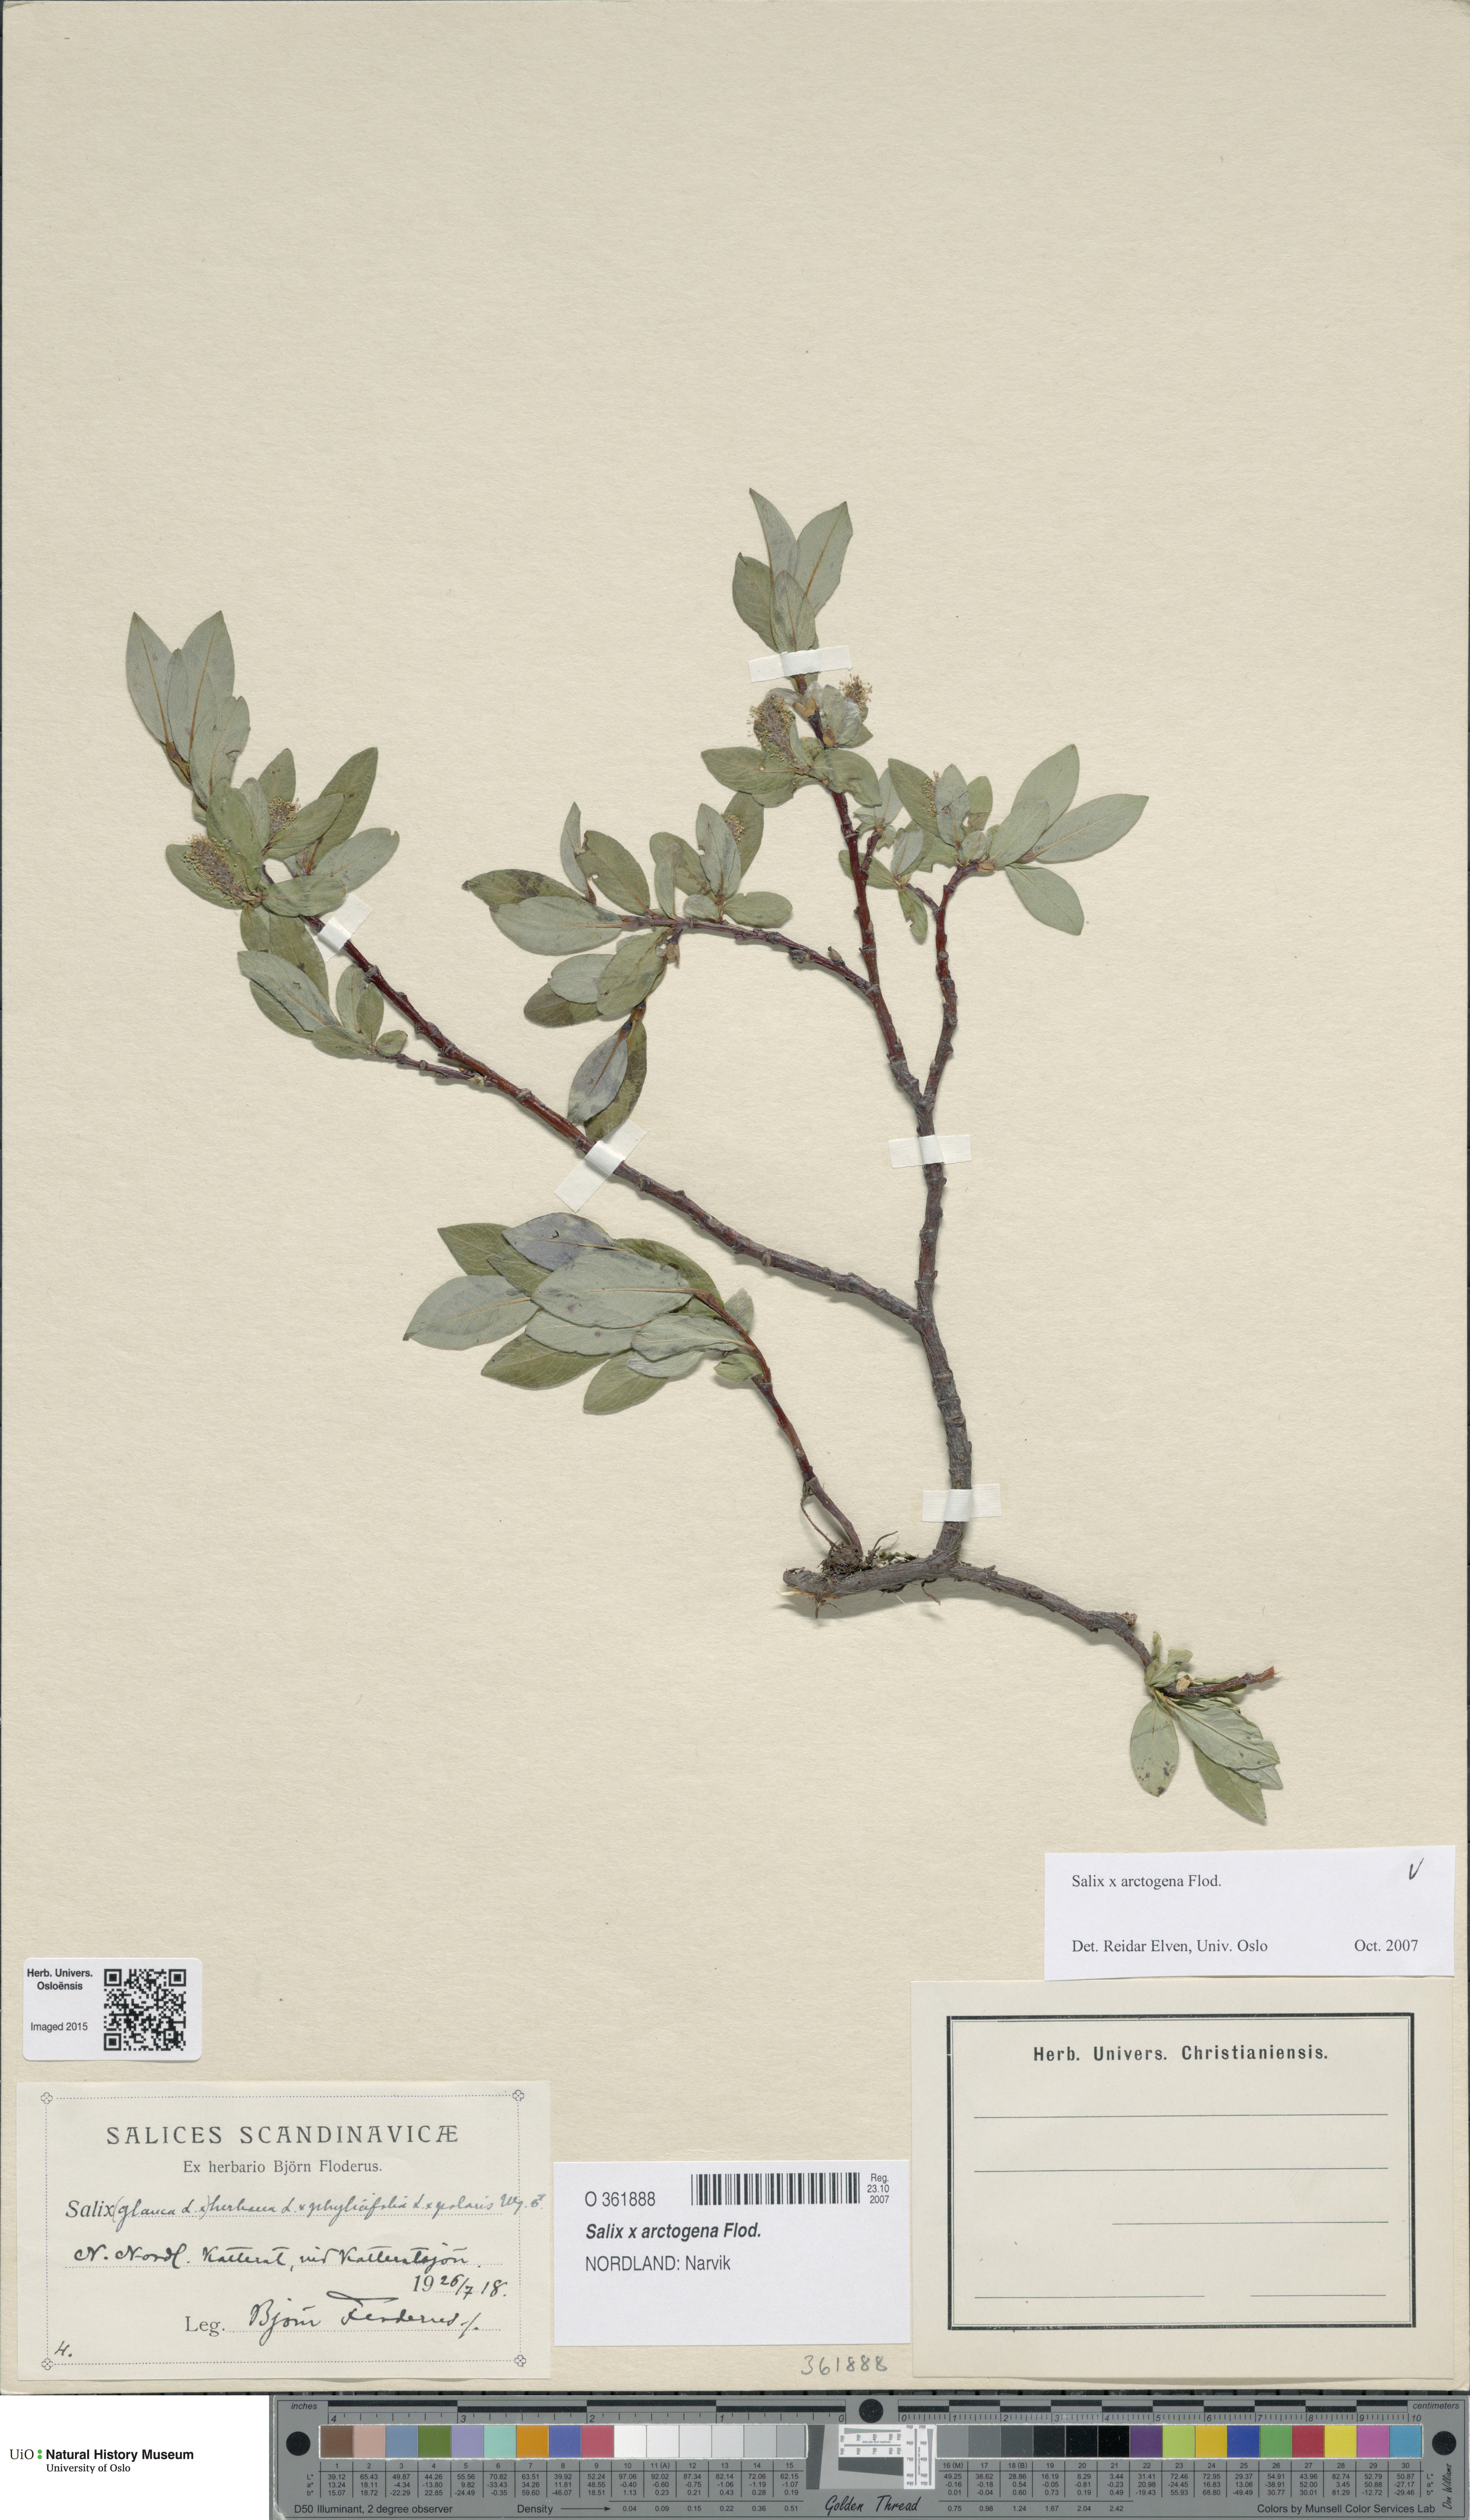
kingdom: Plantae
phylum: Tracheophyta
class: Magnoliopsida
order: Malpighiales
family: Salicaceae
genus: Salix
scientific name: Salix arctogena
